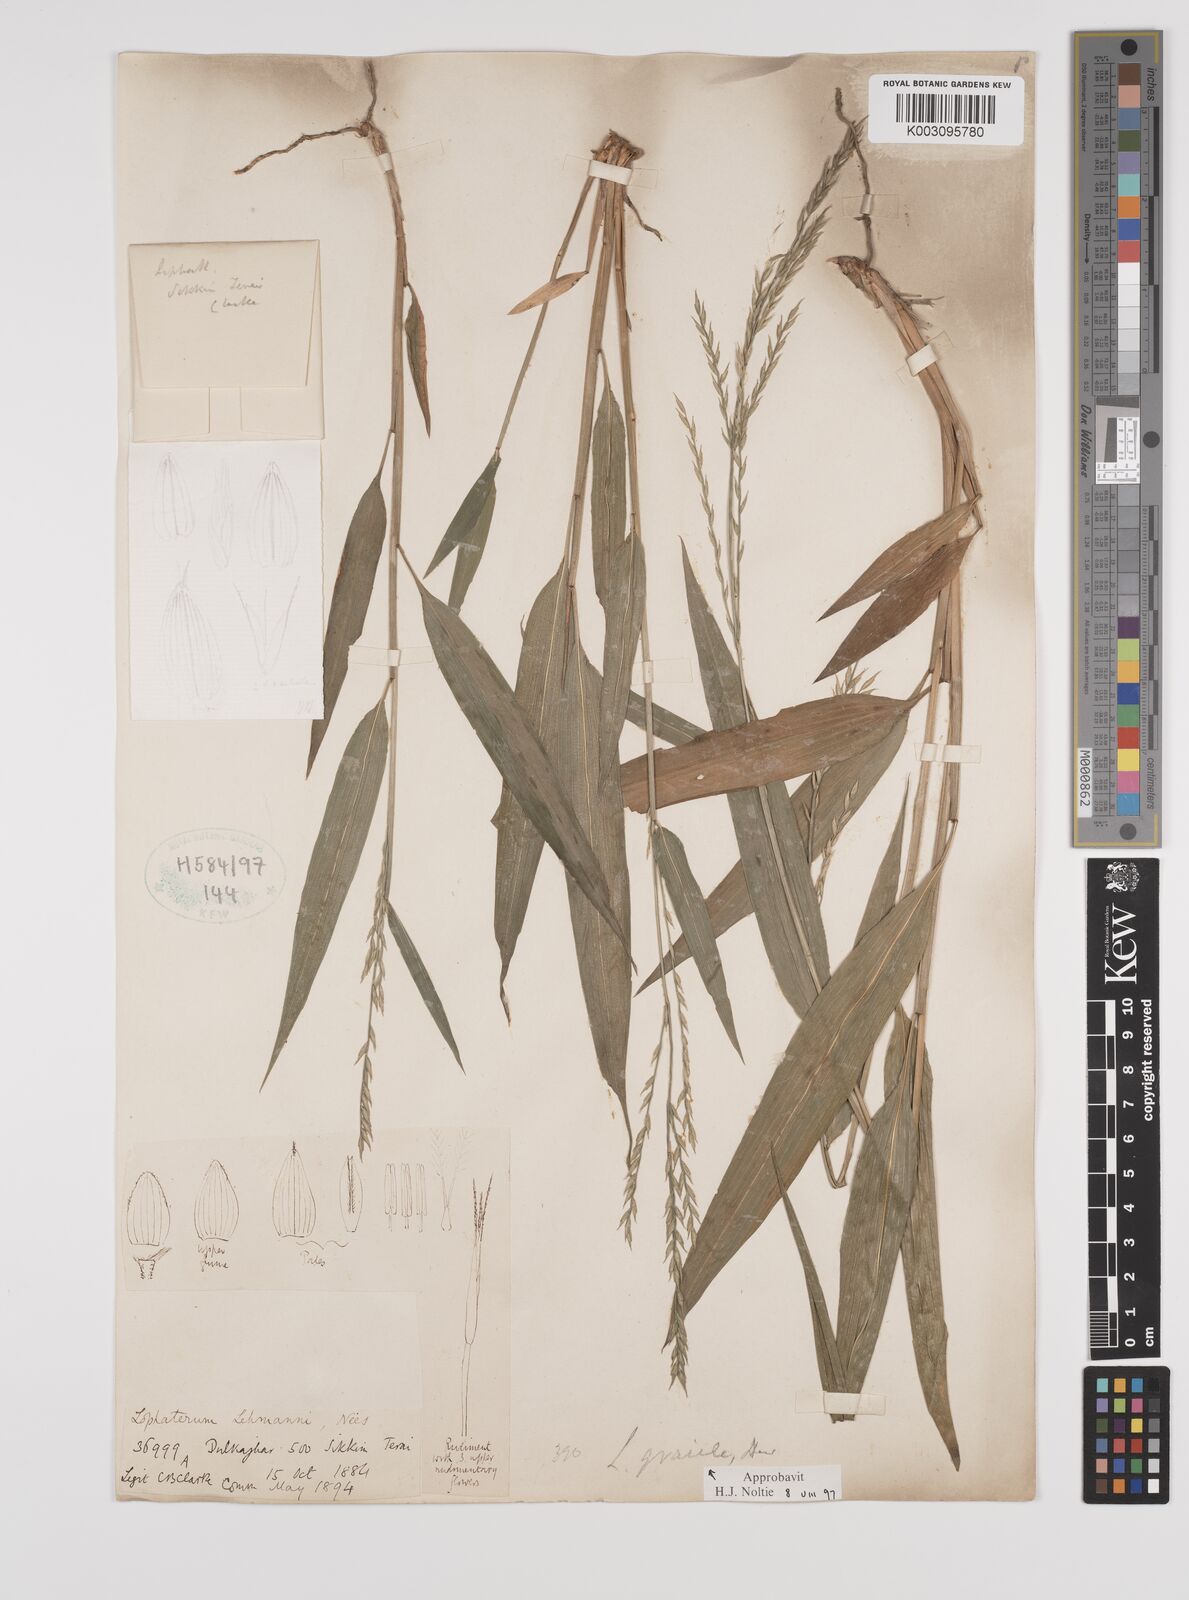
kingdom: Plantae
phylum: Tracheophyta
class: Liliopsida
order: Poales
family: Poaceae
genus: Lophatherum
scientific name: Lophatherum gracile
